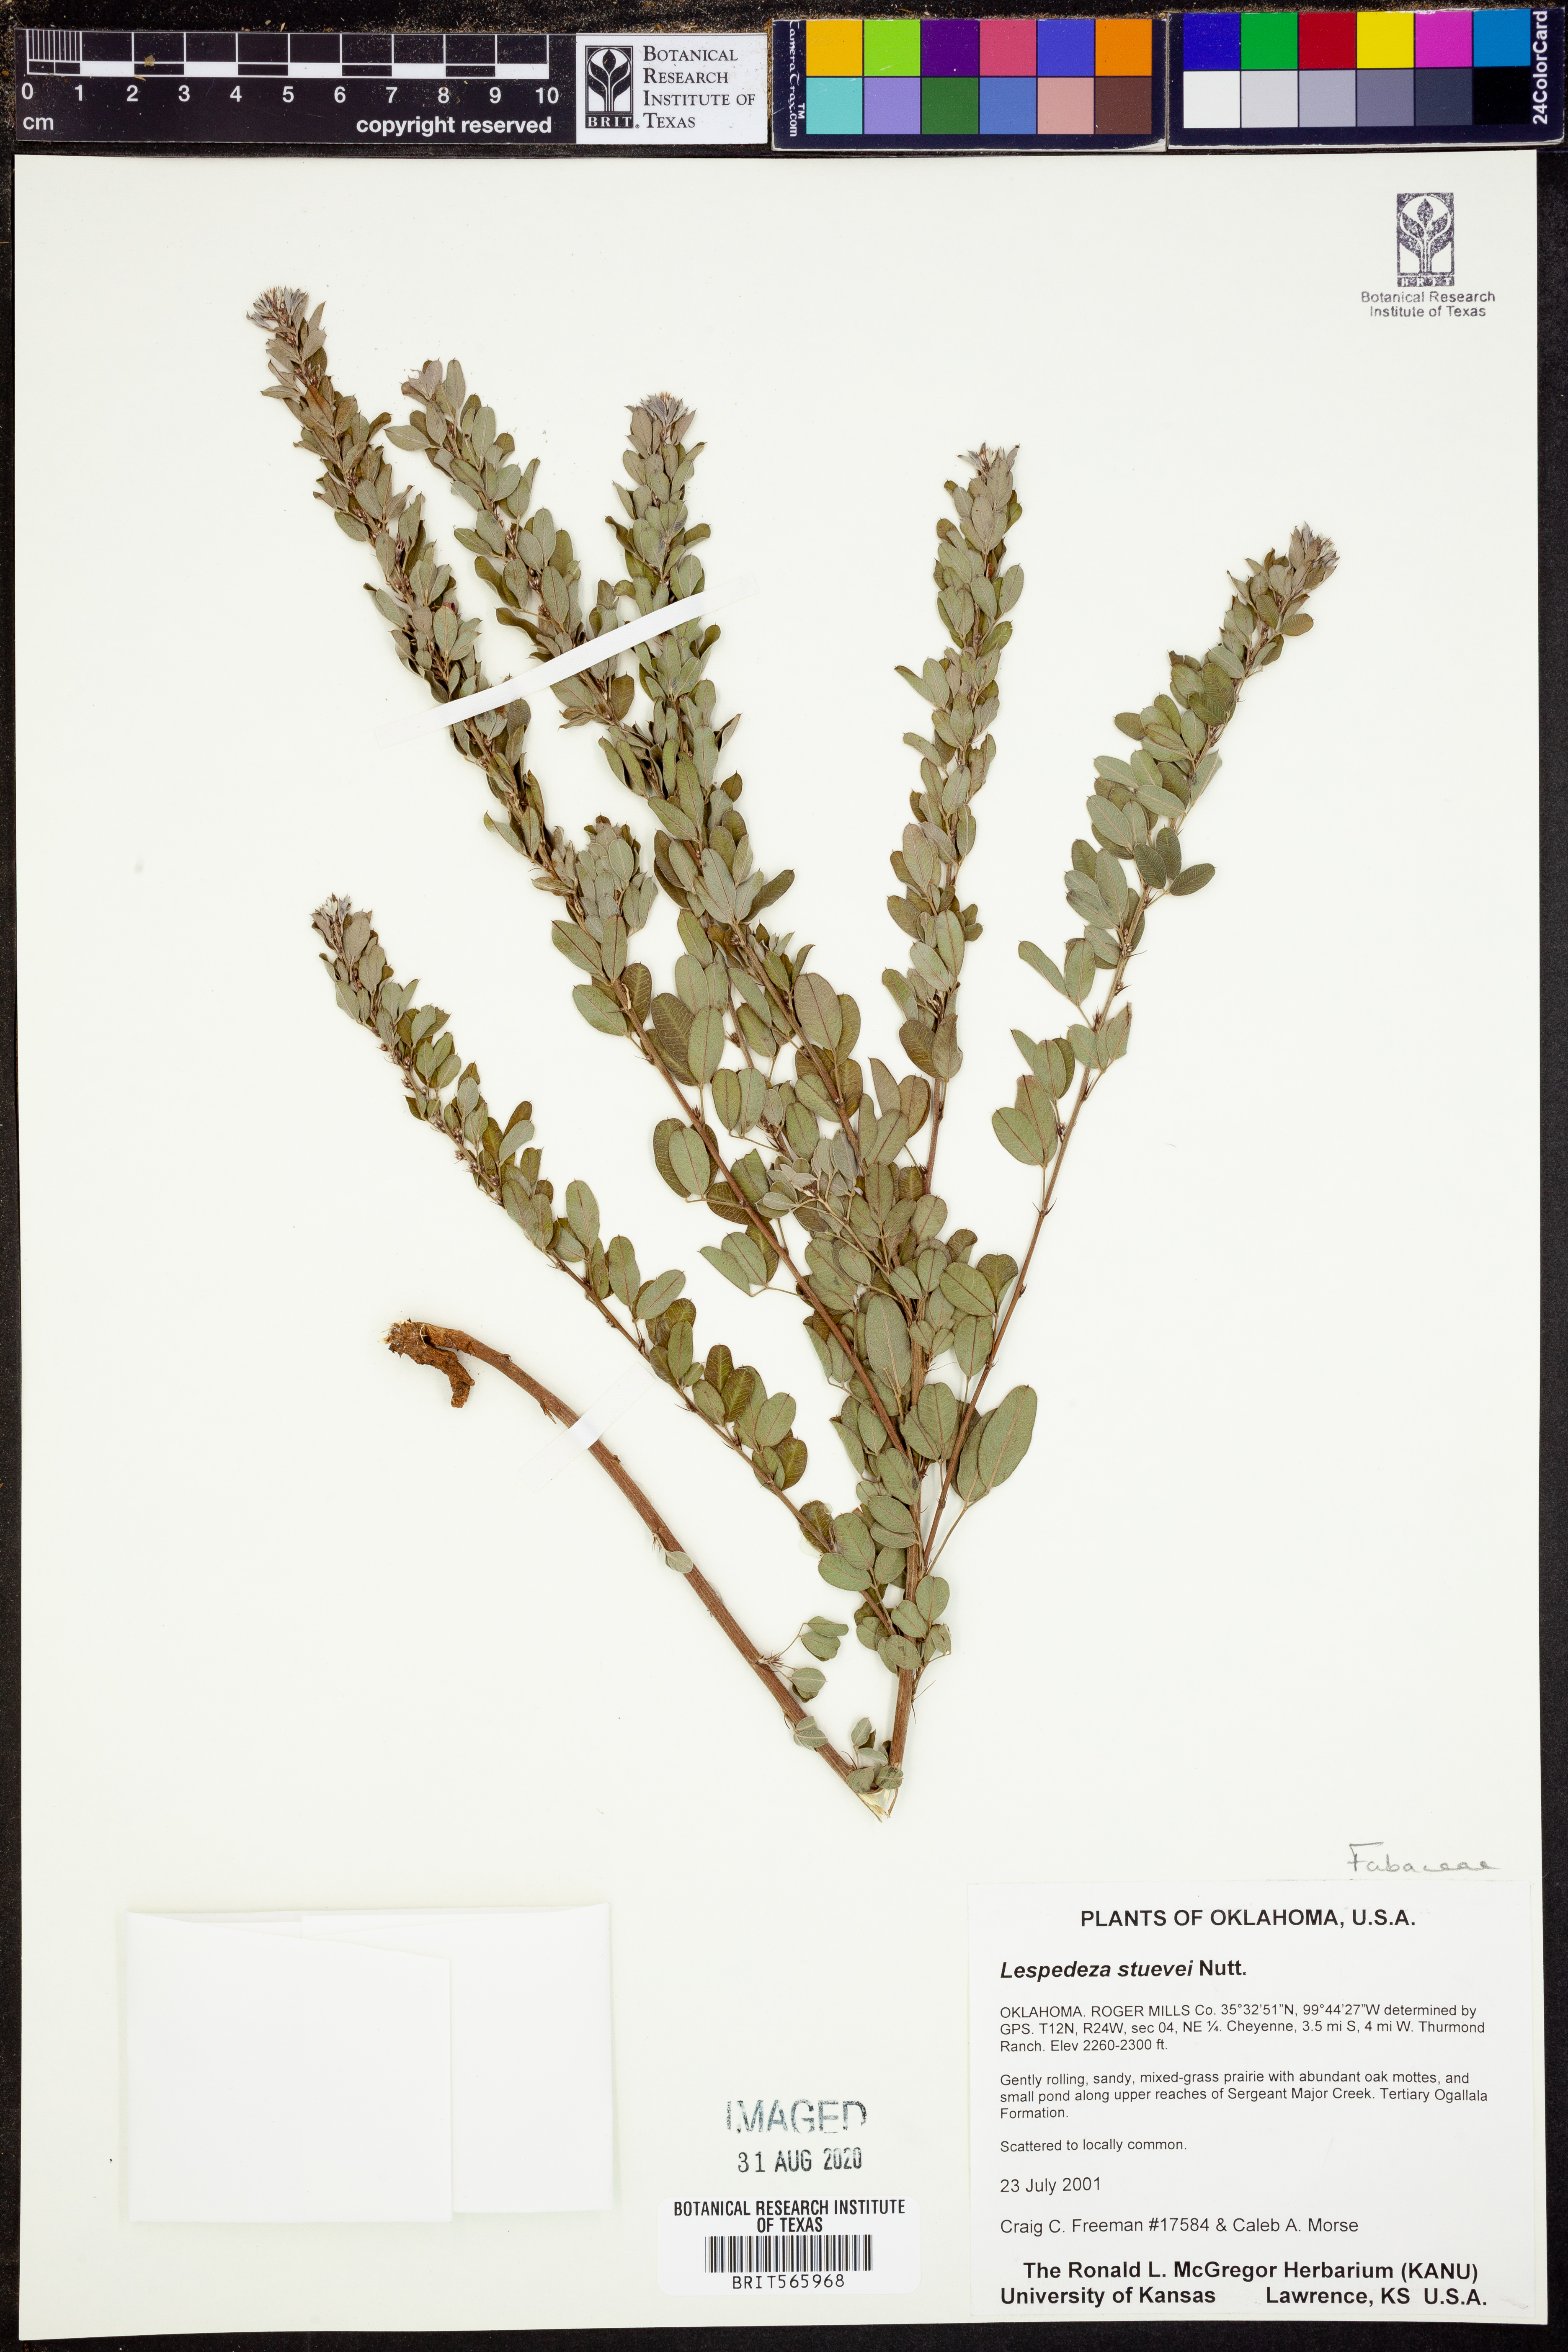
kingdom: Plantae
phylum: Tracheophyta
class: Magnoliopsida
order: Fabales
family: Fabaceae
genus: Lespedeza
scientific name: Lespedeza stuevei
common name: Tall bush-clover
